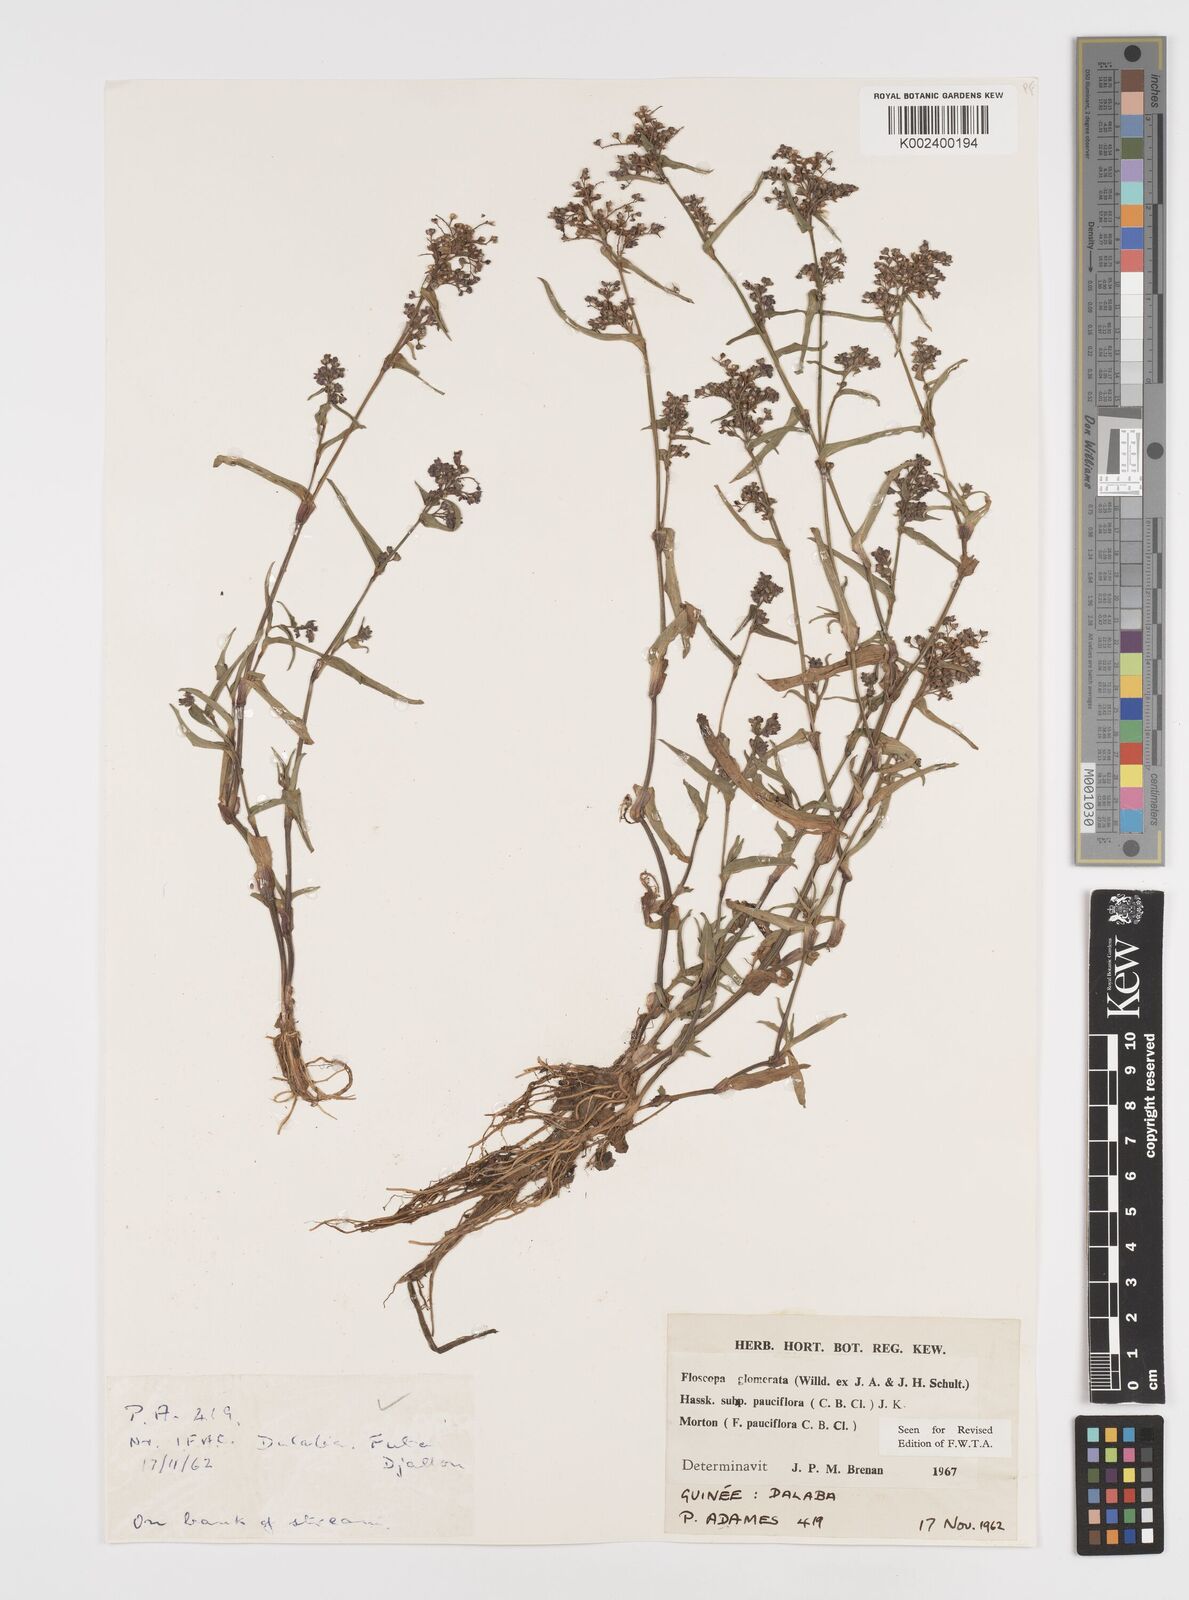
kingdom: Plantae
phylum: Tracheophyta
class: Liliopsida
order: Commelinales
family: Commelinaceae
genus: Floscopa
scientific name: Floscopa glomerata
